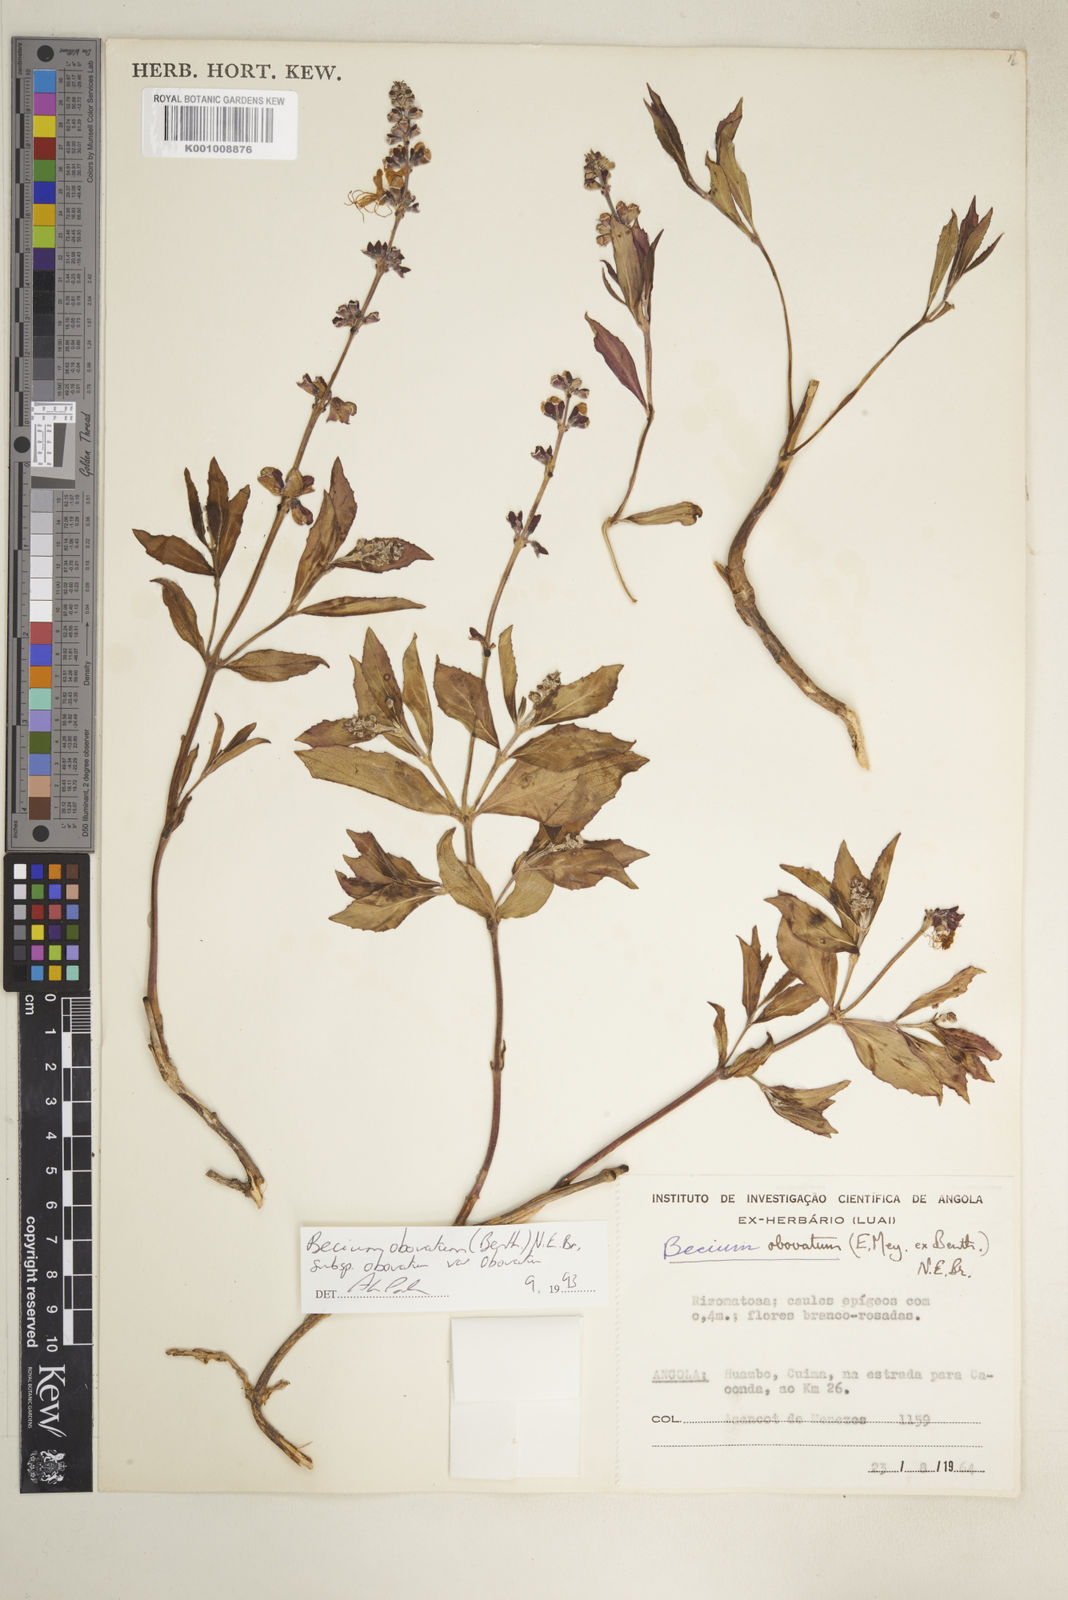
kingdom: Plantae
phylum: Tracheophyta
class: Magnoliopsida
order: Lamiales
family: Lamiaceae
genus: Ocimum
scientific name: Ocimum obovatum
